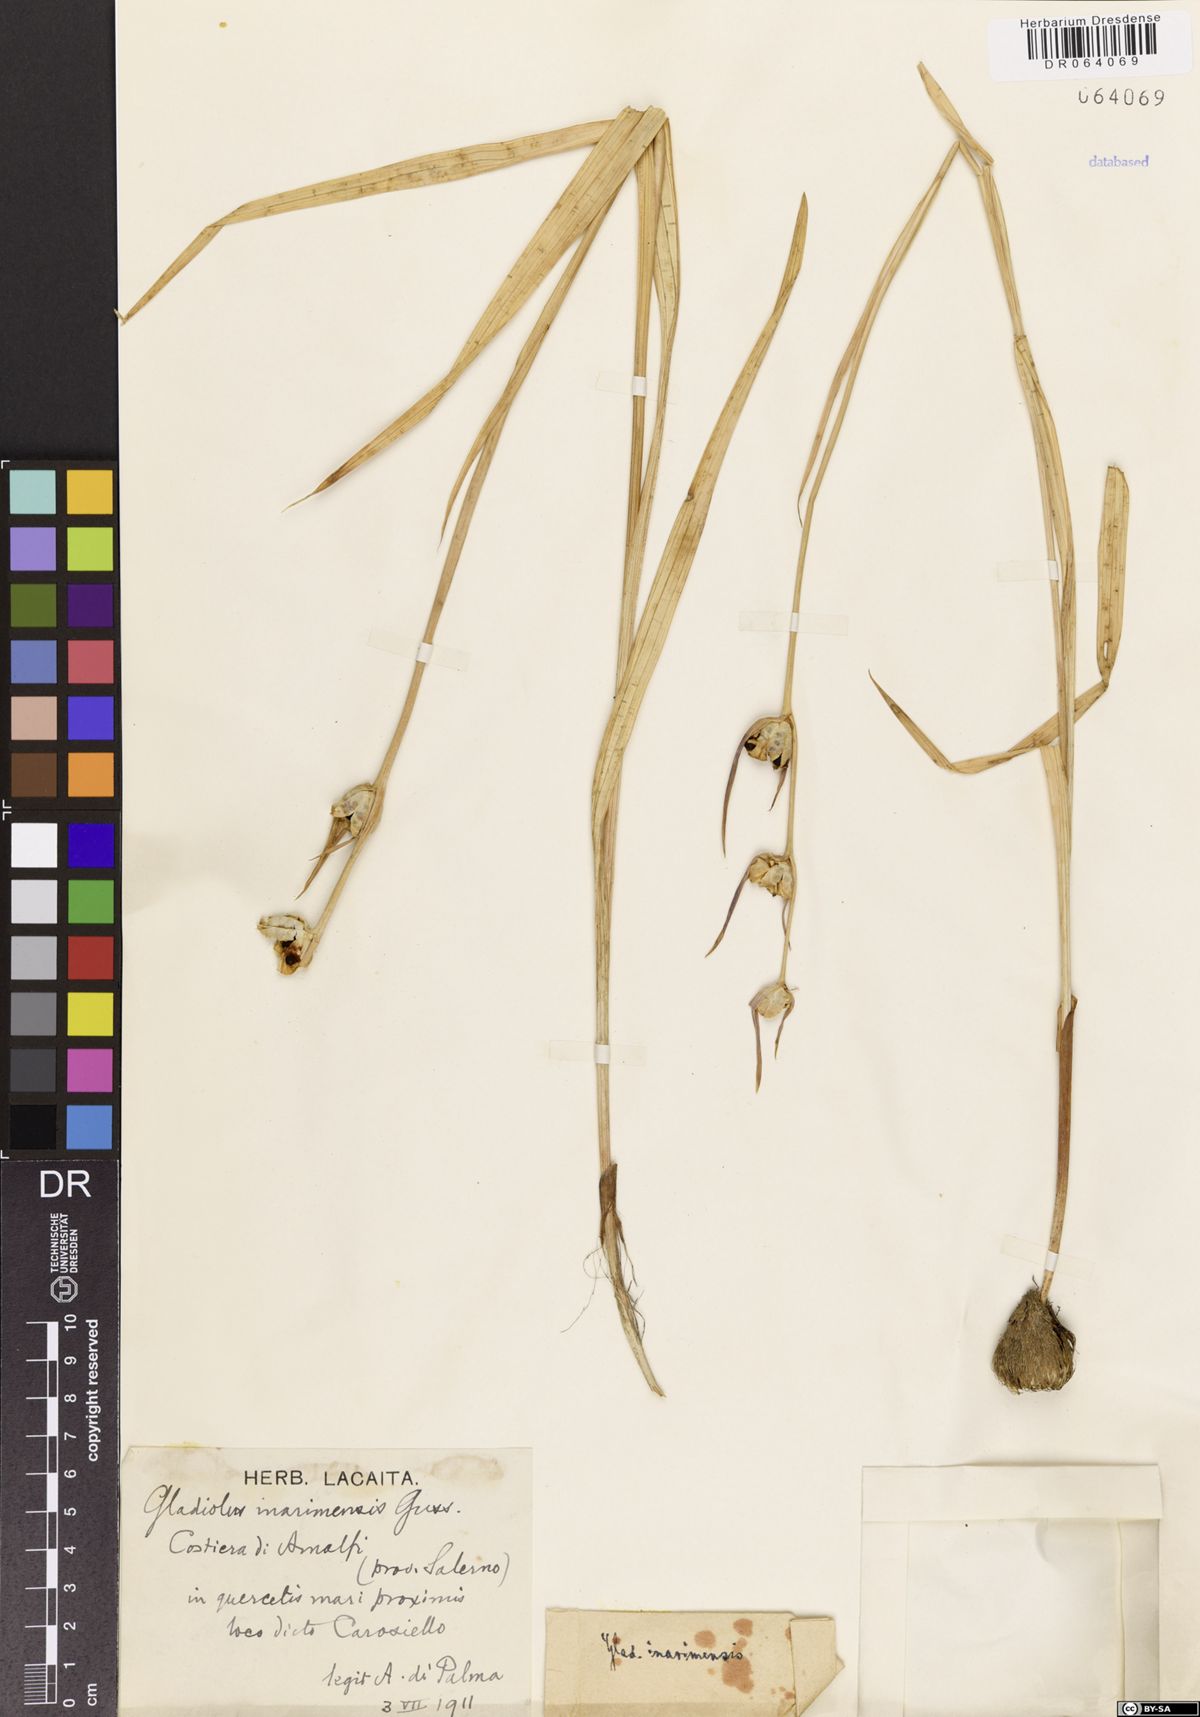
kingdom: Plantae
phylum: Tracheophyta
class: Liliopsida
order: Asparagales
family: Iridaceae
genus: Gladiolus
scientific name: Gladiolus inarimensis
